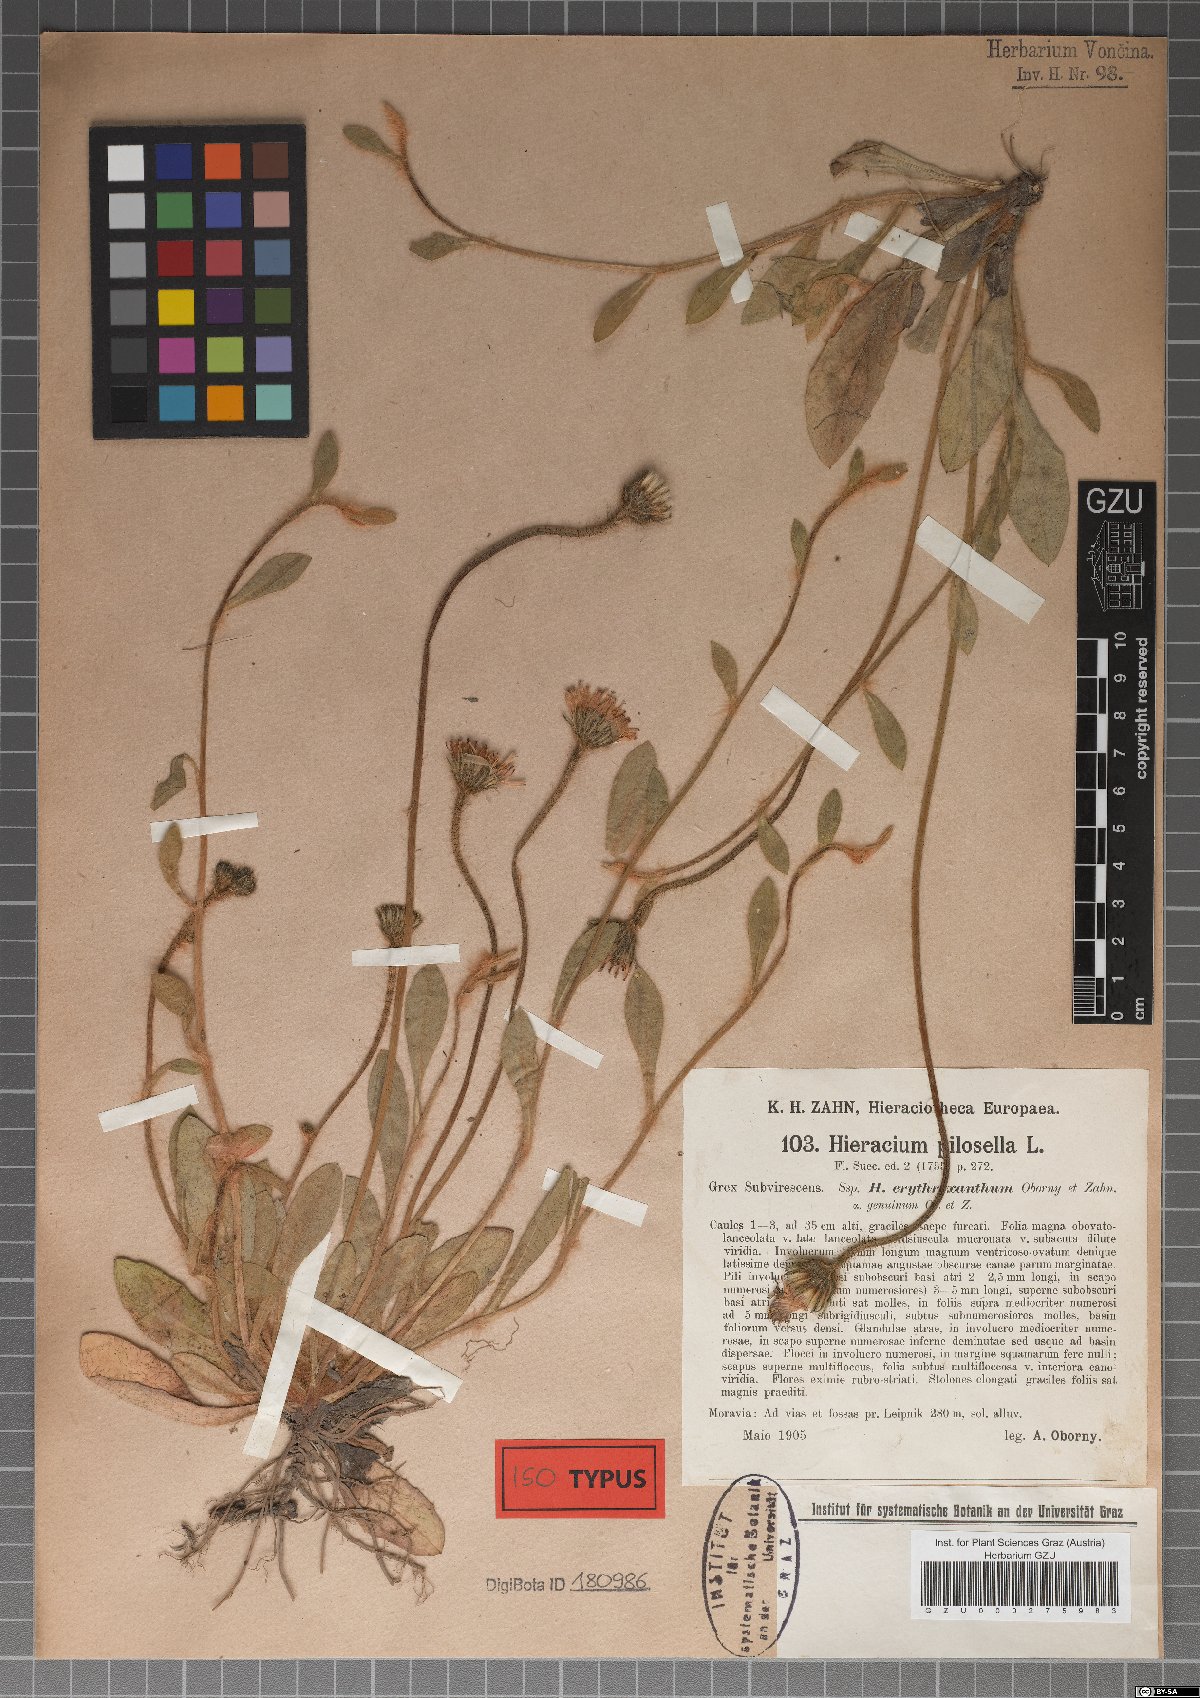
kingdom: Plantae
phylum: Tracheophyta
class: Magnoliopsida
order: Asterales
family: Asteraceae
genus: Pilosella
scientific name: Pilosella officinarum
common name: Mouse-ear hawkweed
